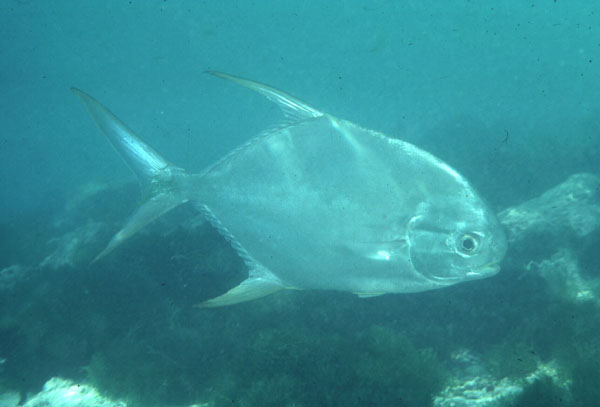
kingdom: Animalia
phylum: Chordata
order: Perciformes
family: Carangidae
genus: Trachinotus
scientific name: Trachinotus blochii
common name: Snubnose pompano
